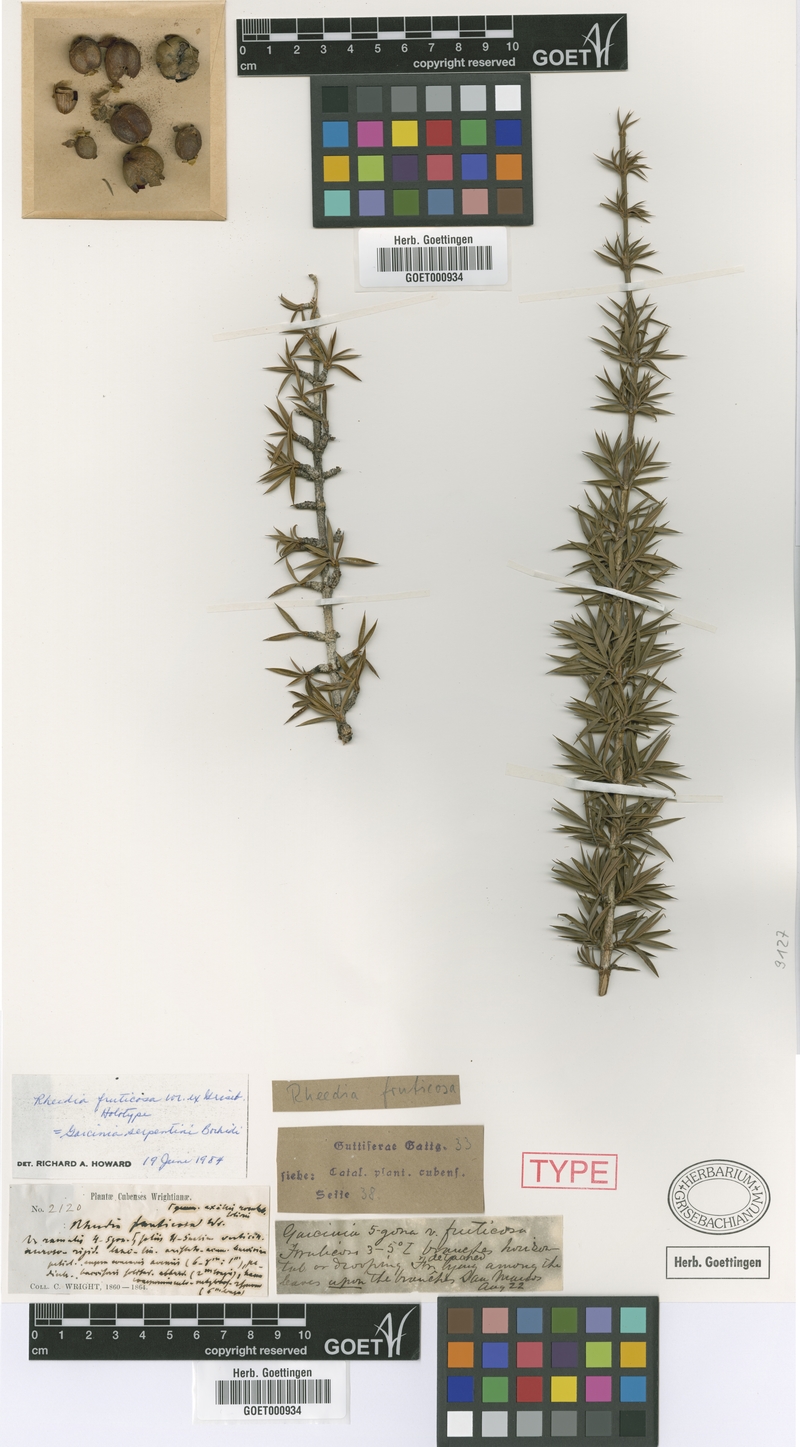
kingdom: Plantae
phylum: Tracheophyta
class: Magnoliopsida
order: Malpighiales
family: Clusiaceae
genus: Garcinia
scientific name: Garcinia serpentini
